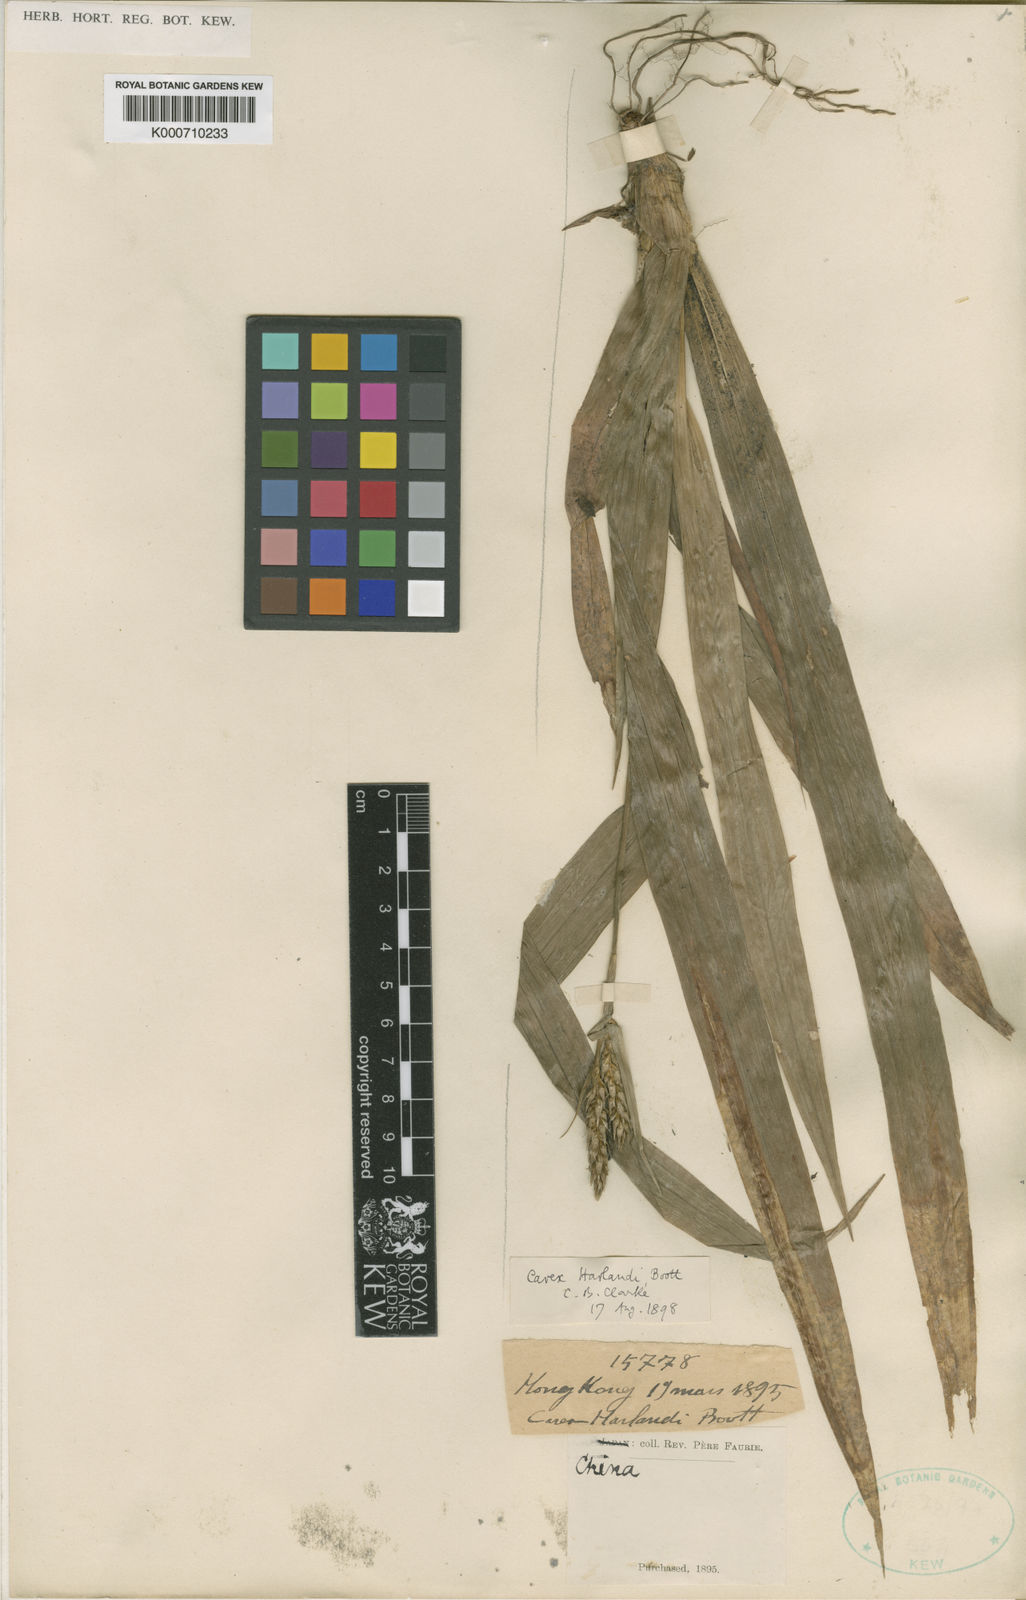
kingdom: Plantae
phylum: Tracheophyta
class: Liliopsida
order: Poales
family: Cyperaceae
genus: Carex
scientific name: Carex harlandii
